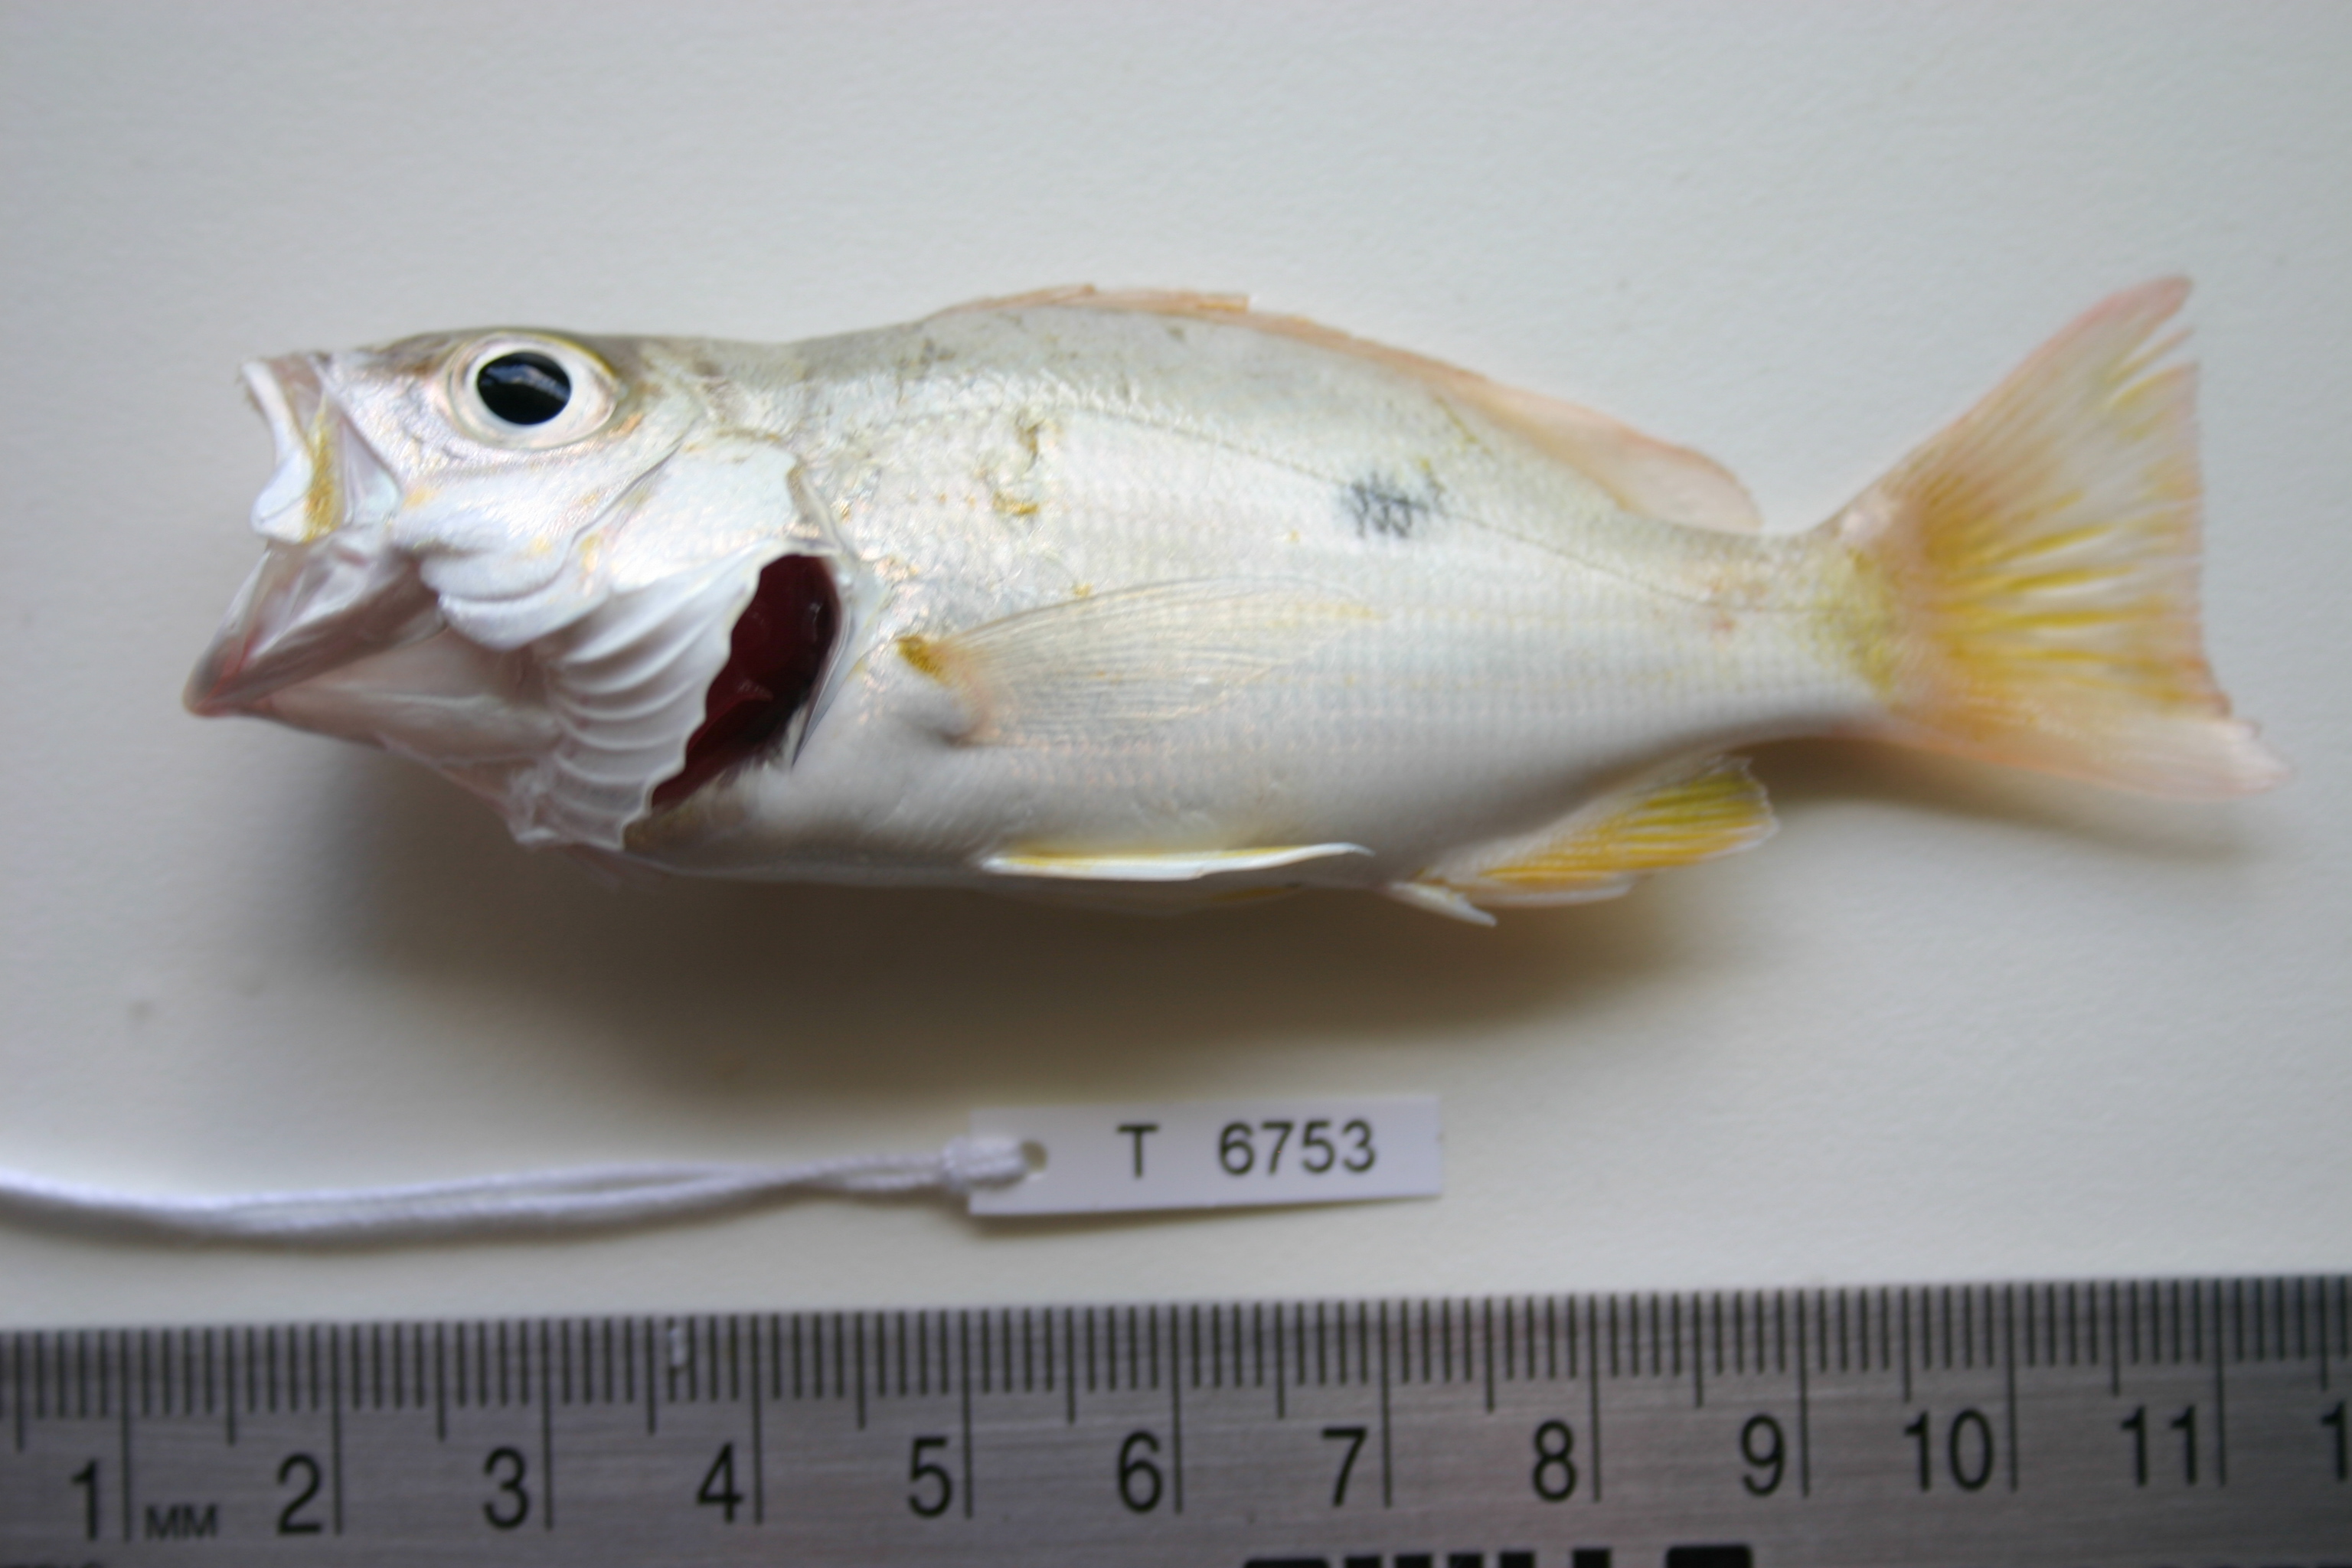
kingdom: Animalia
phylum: Chordata
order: Perciformes
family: Lutjanidae
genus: Lutjanus
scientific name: Lutjanus fulviflamma
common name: Blackspot snapper
